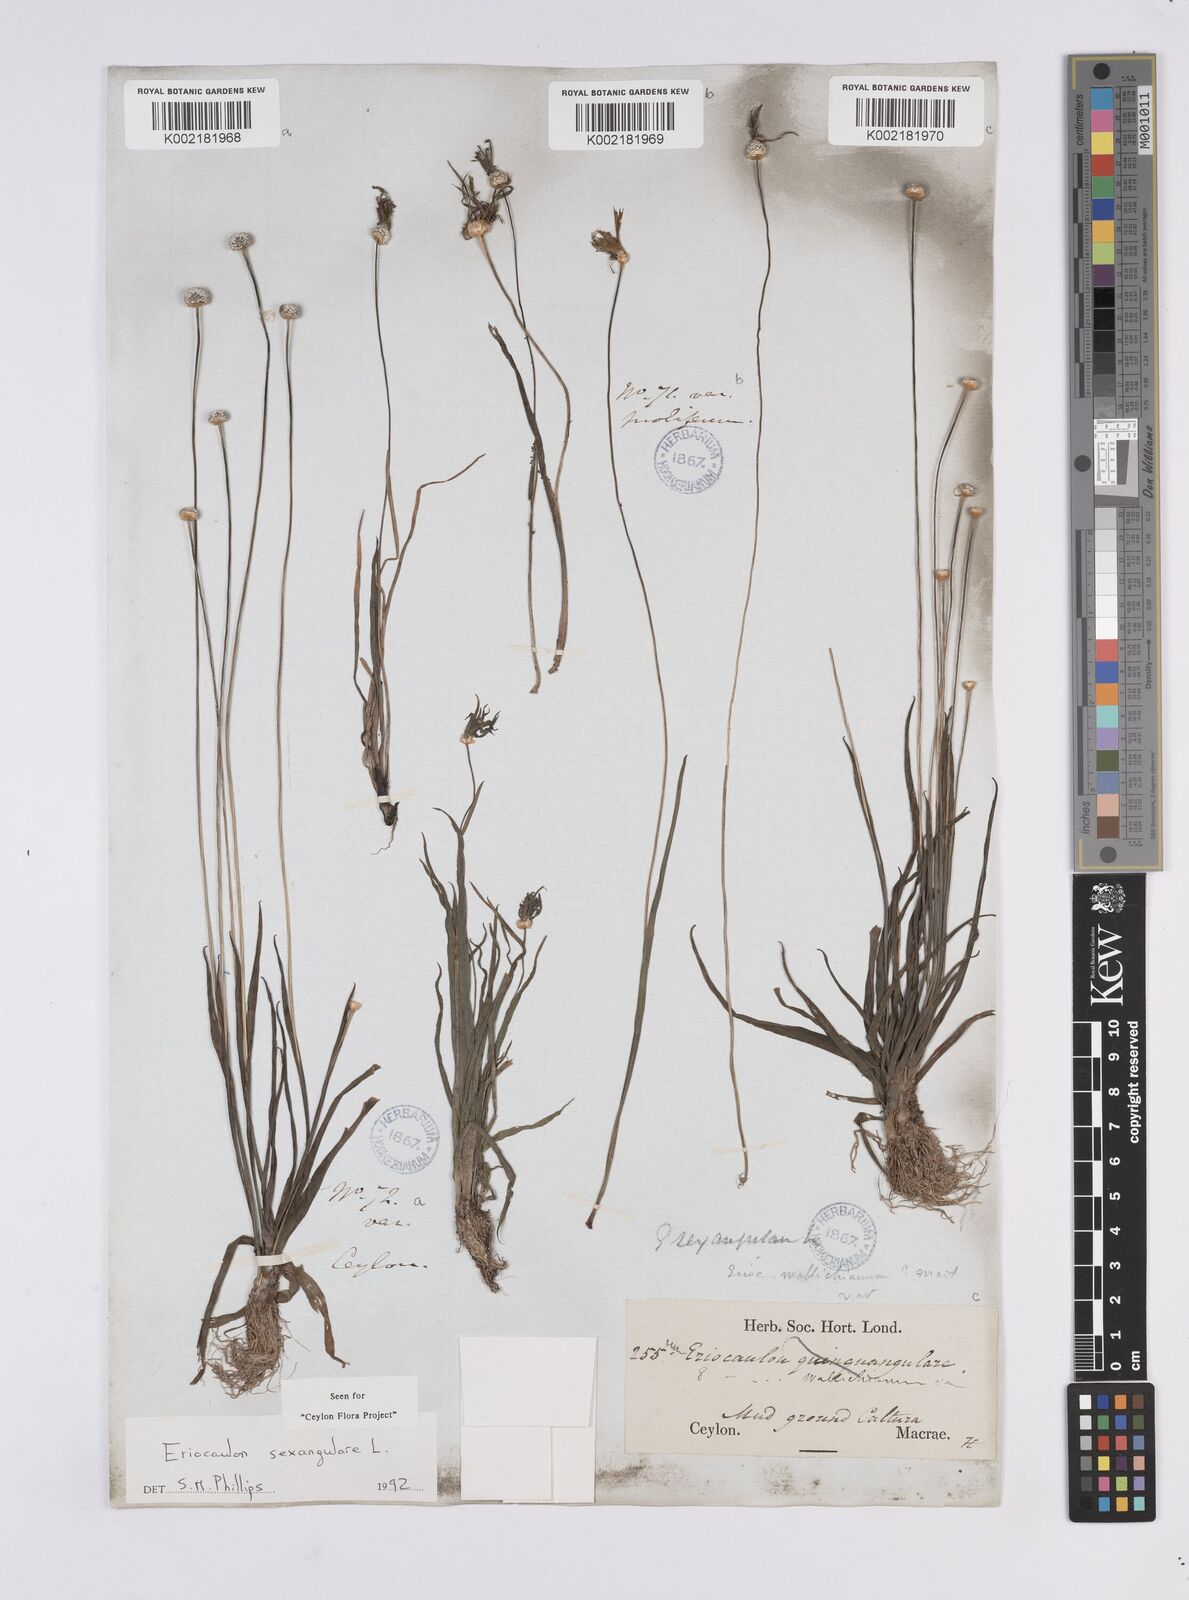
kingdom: Plantae
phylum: Tracheophyta
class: Liliopsida
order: Poales
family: Eriocaulaceae
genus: Eriocaulon
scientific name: Eriocaulon sexangulare
